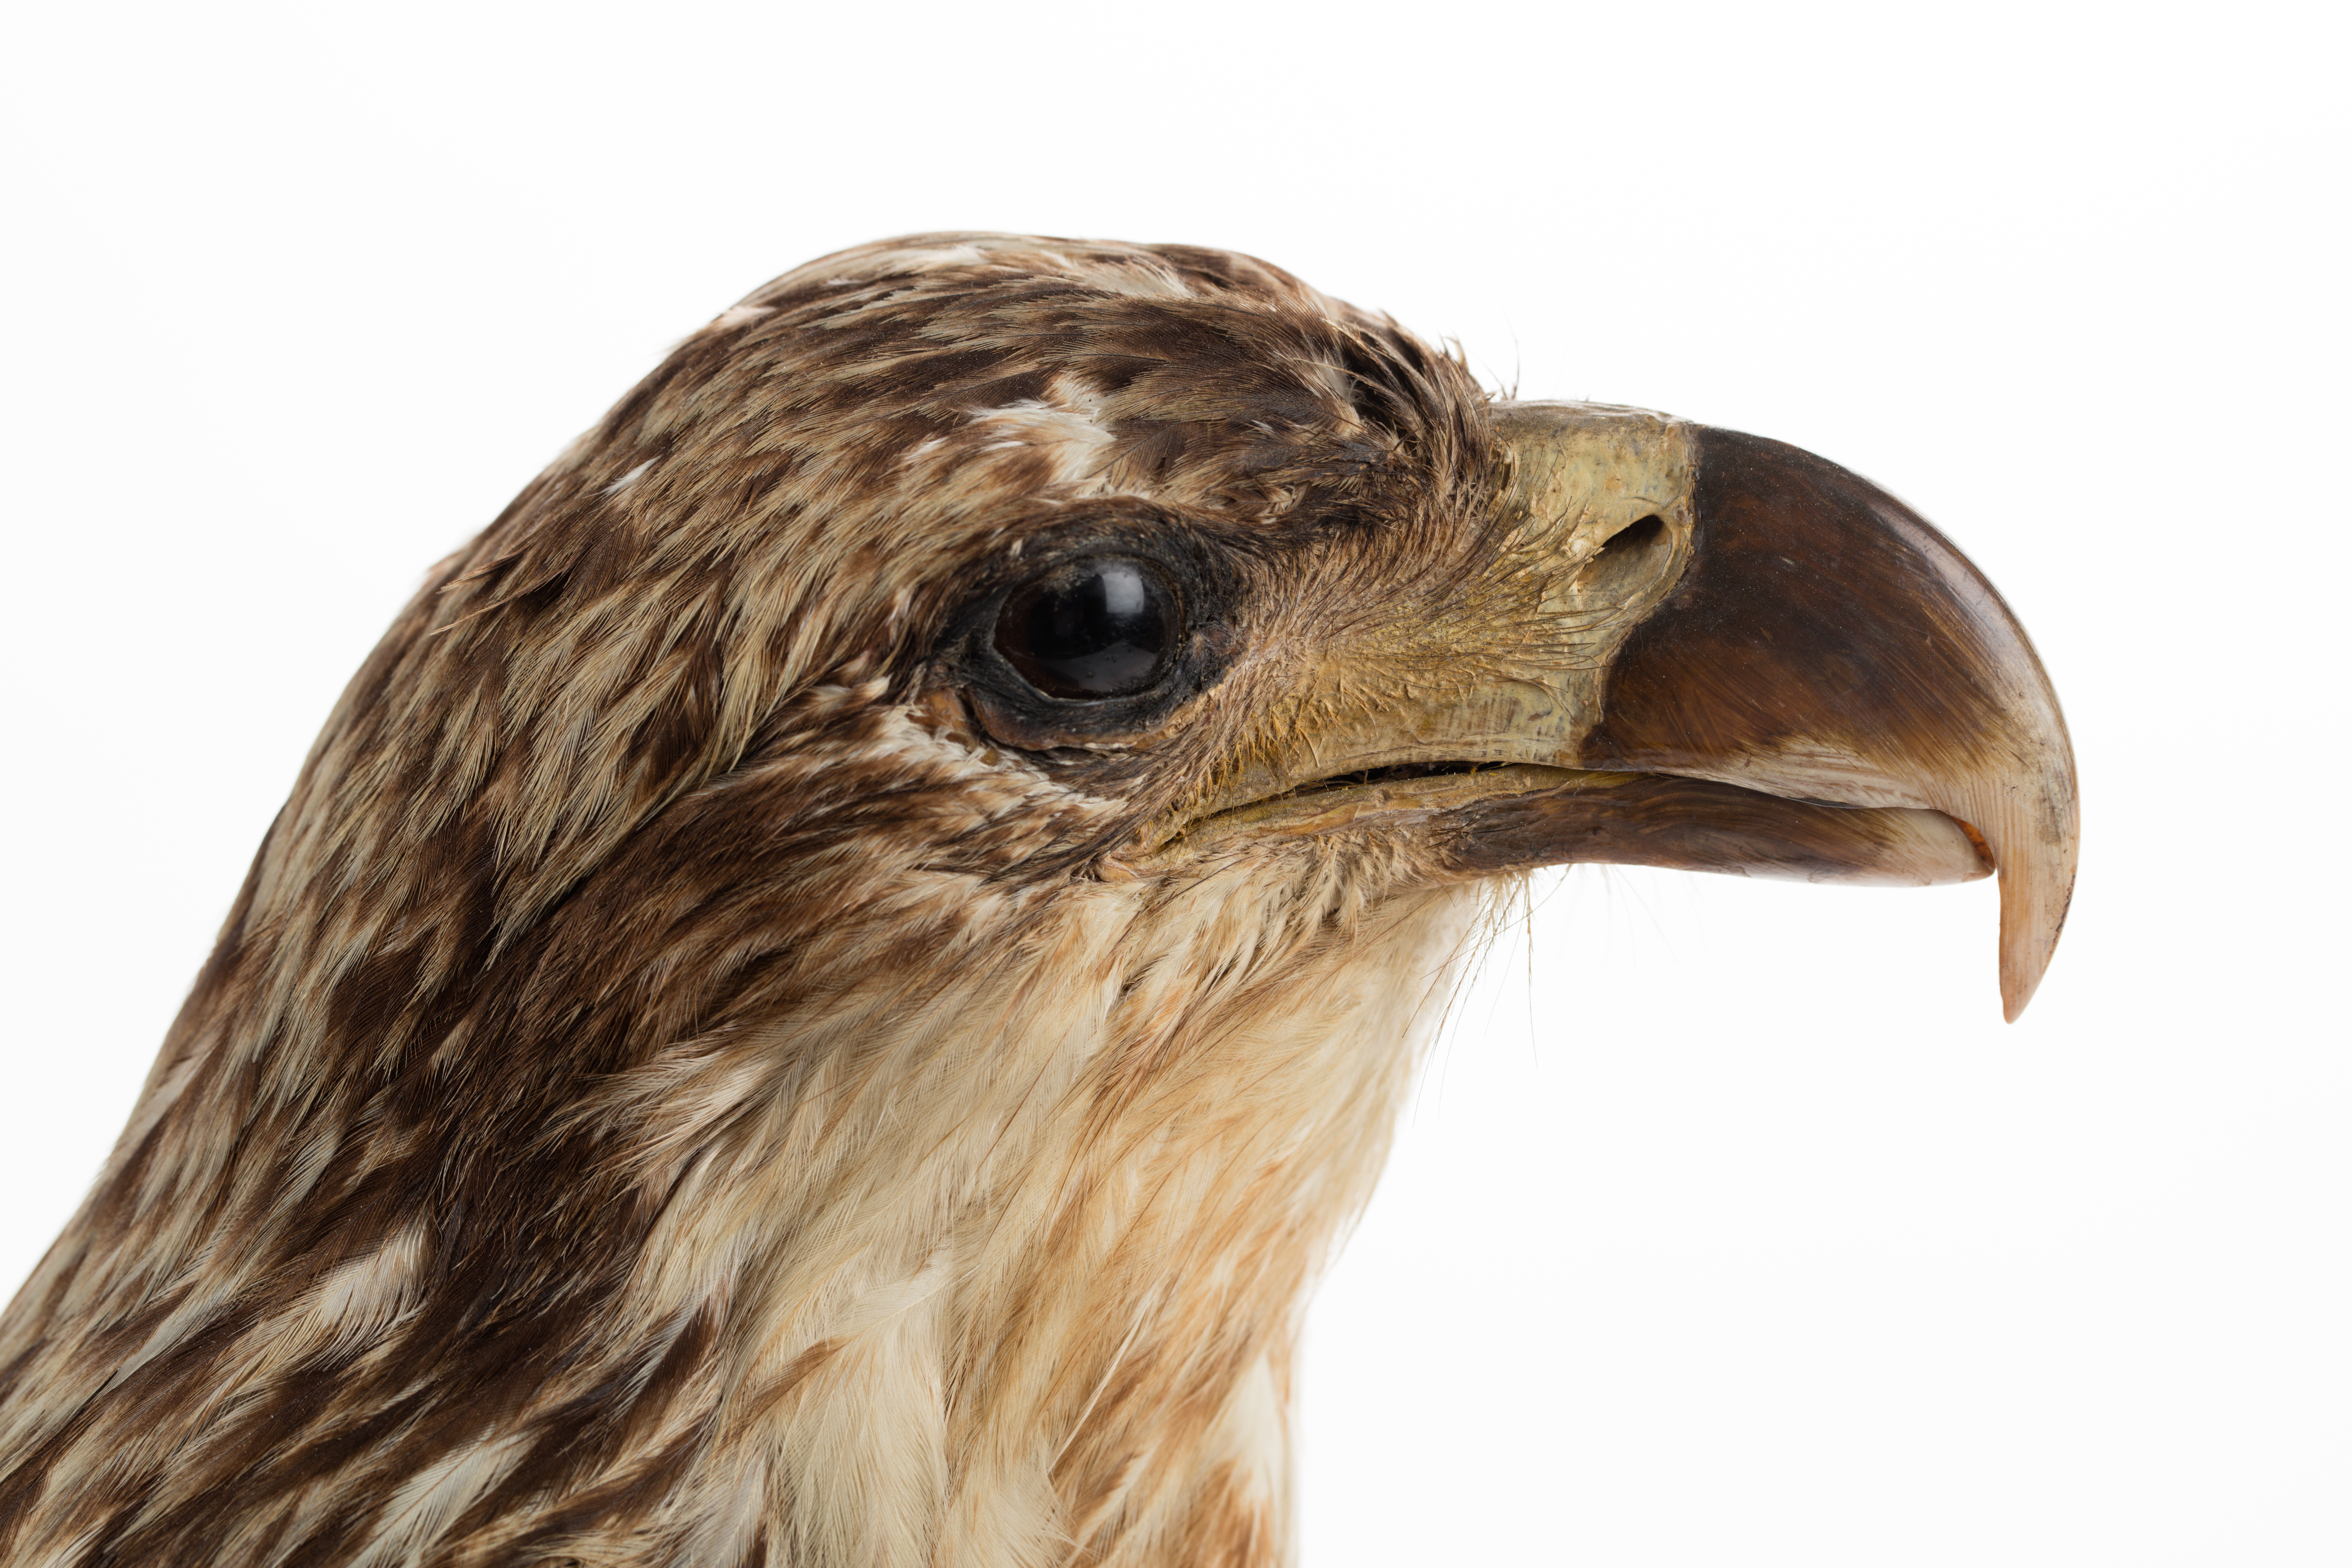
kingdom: Animalia
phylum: Chordata
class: Aves
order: Accipitriformes
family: Accipitridae
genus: Haliaeetus
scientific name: Haliaeetus leucocephalus
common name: Bald eagle
